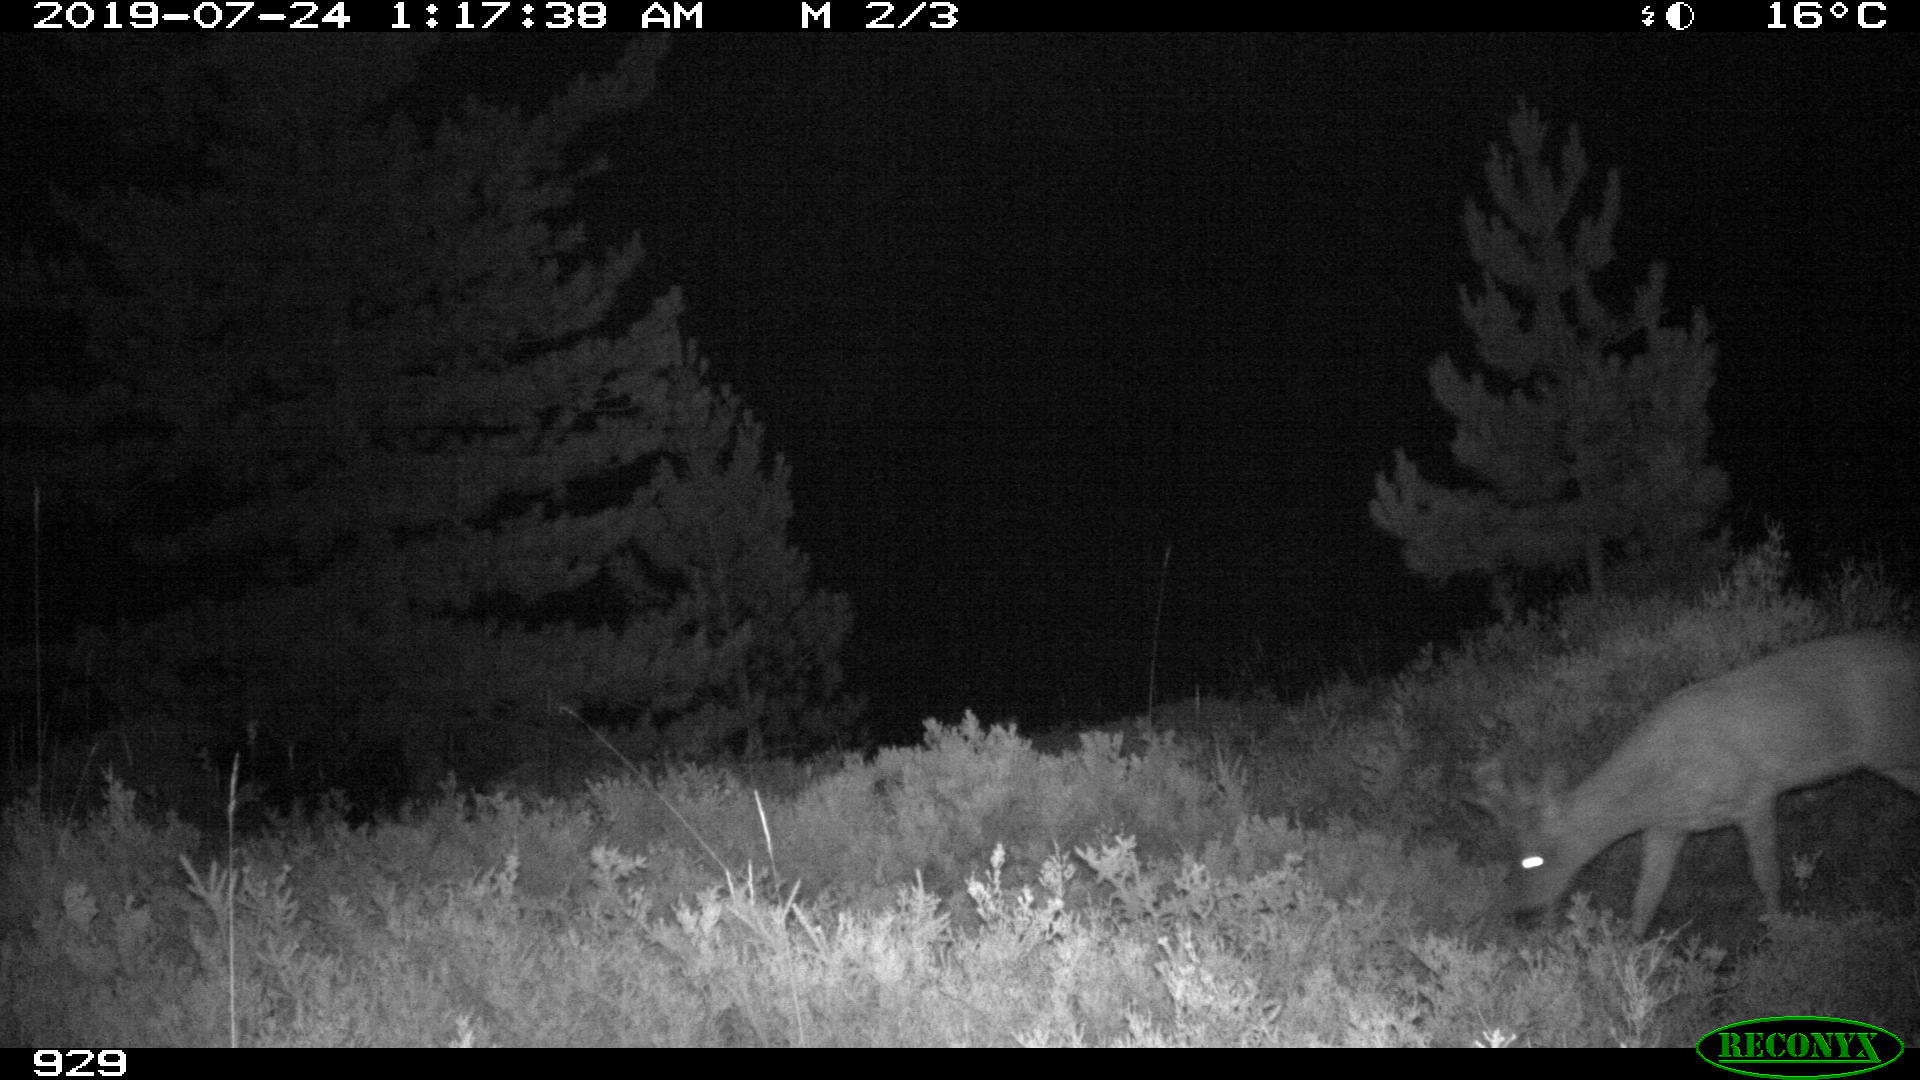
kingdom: Animalia
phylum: Chordata
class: Mammalia
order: Artiodactyla
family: Cervidae
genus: Capreolus
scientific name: Capreolus capreolus
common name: Western roe deer
